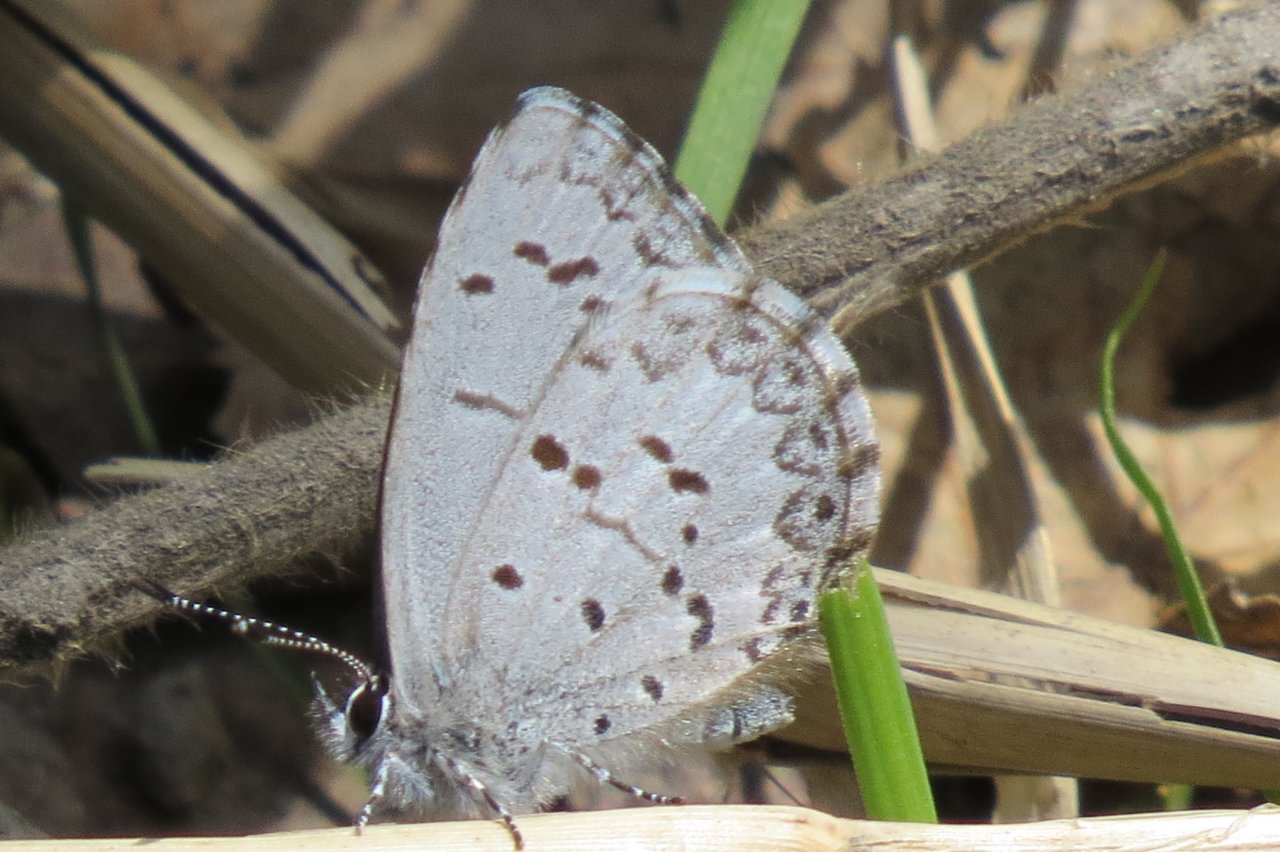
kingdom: Animalia
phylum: Arthropoda
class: Insecta
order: Lepidoptera
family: Lycaenidae
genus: Celastrina
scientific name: Celastrina lucia
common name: Northern Spring Azure
